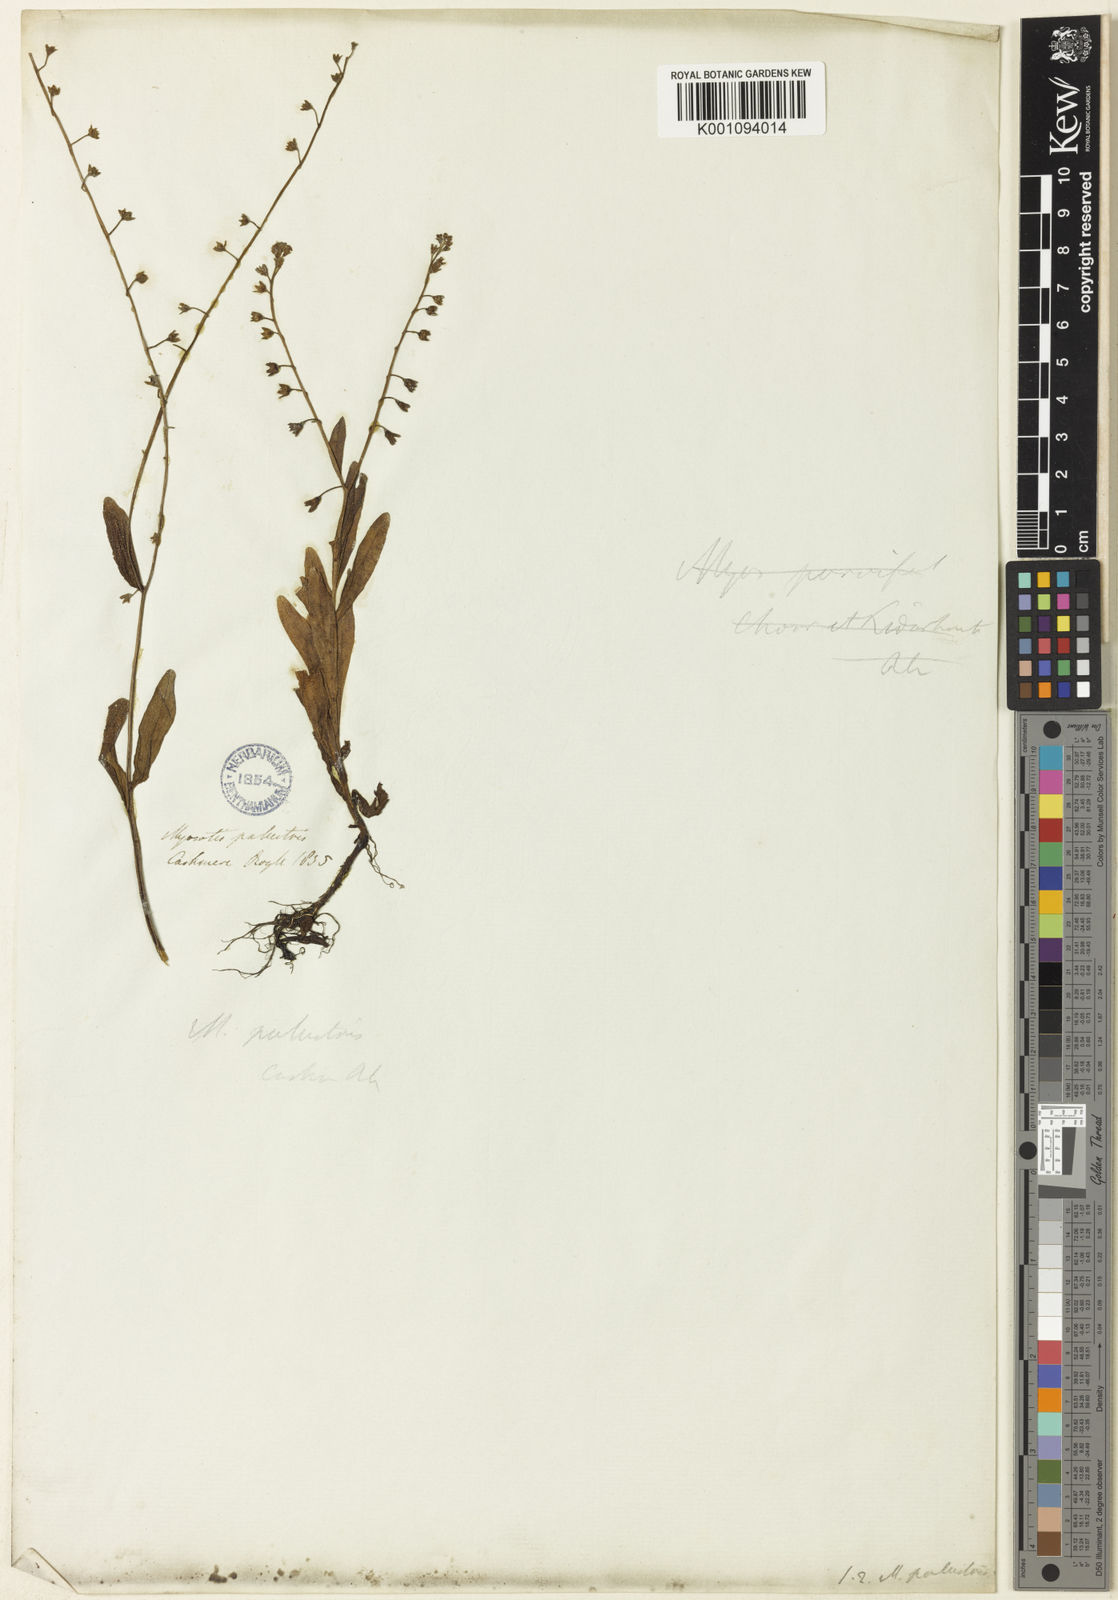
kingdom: Plantae
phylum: Tracheophyta
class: Magnoliopsida
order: Boraginales
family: Boraginaceae
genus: Myosotis
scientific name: Myosotis
